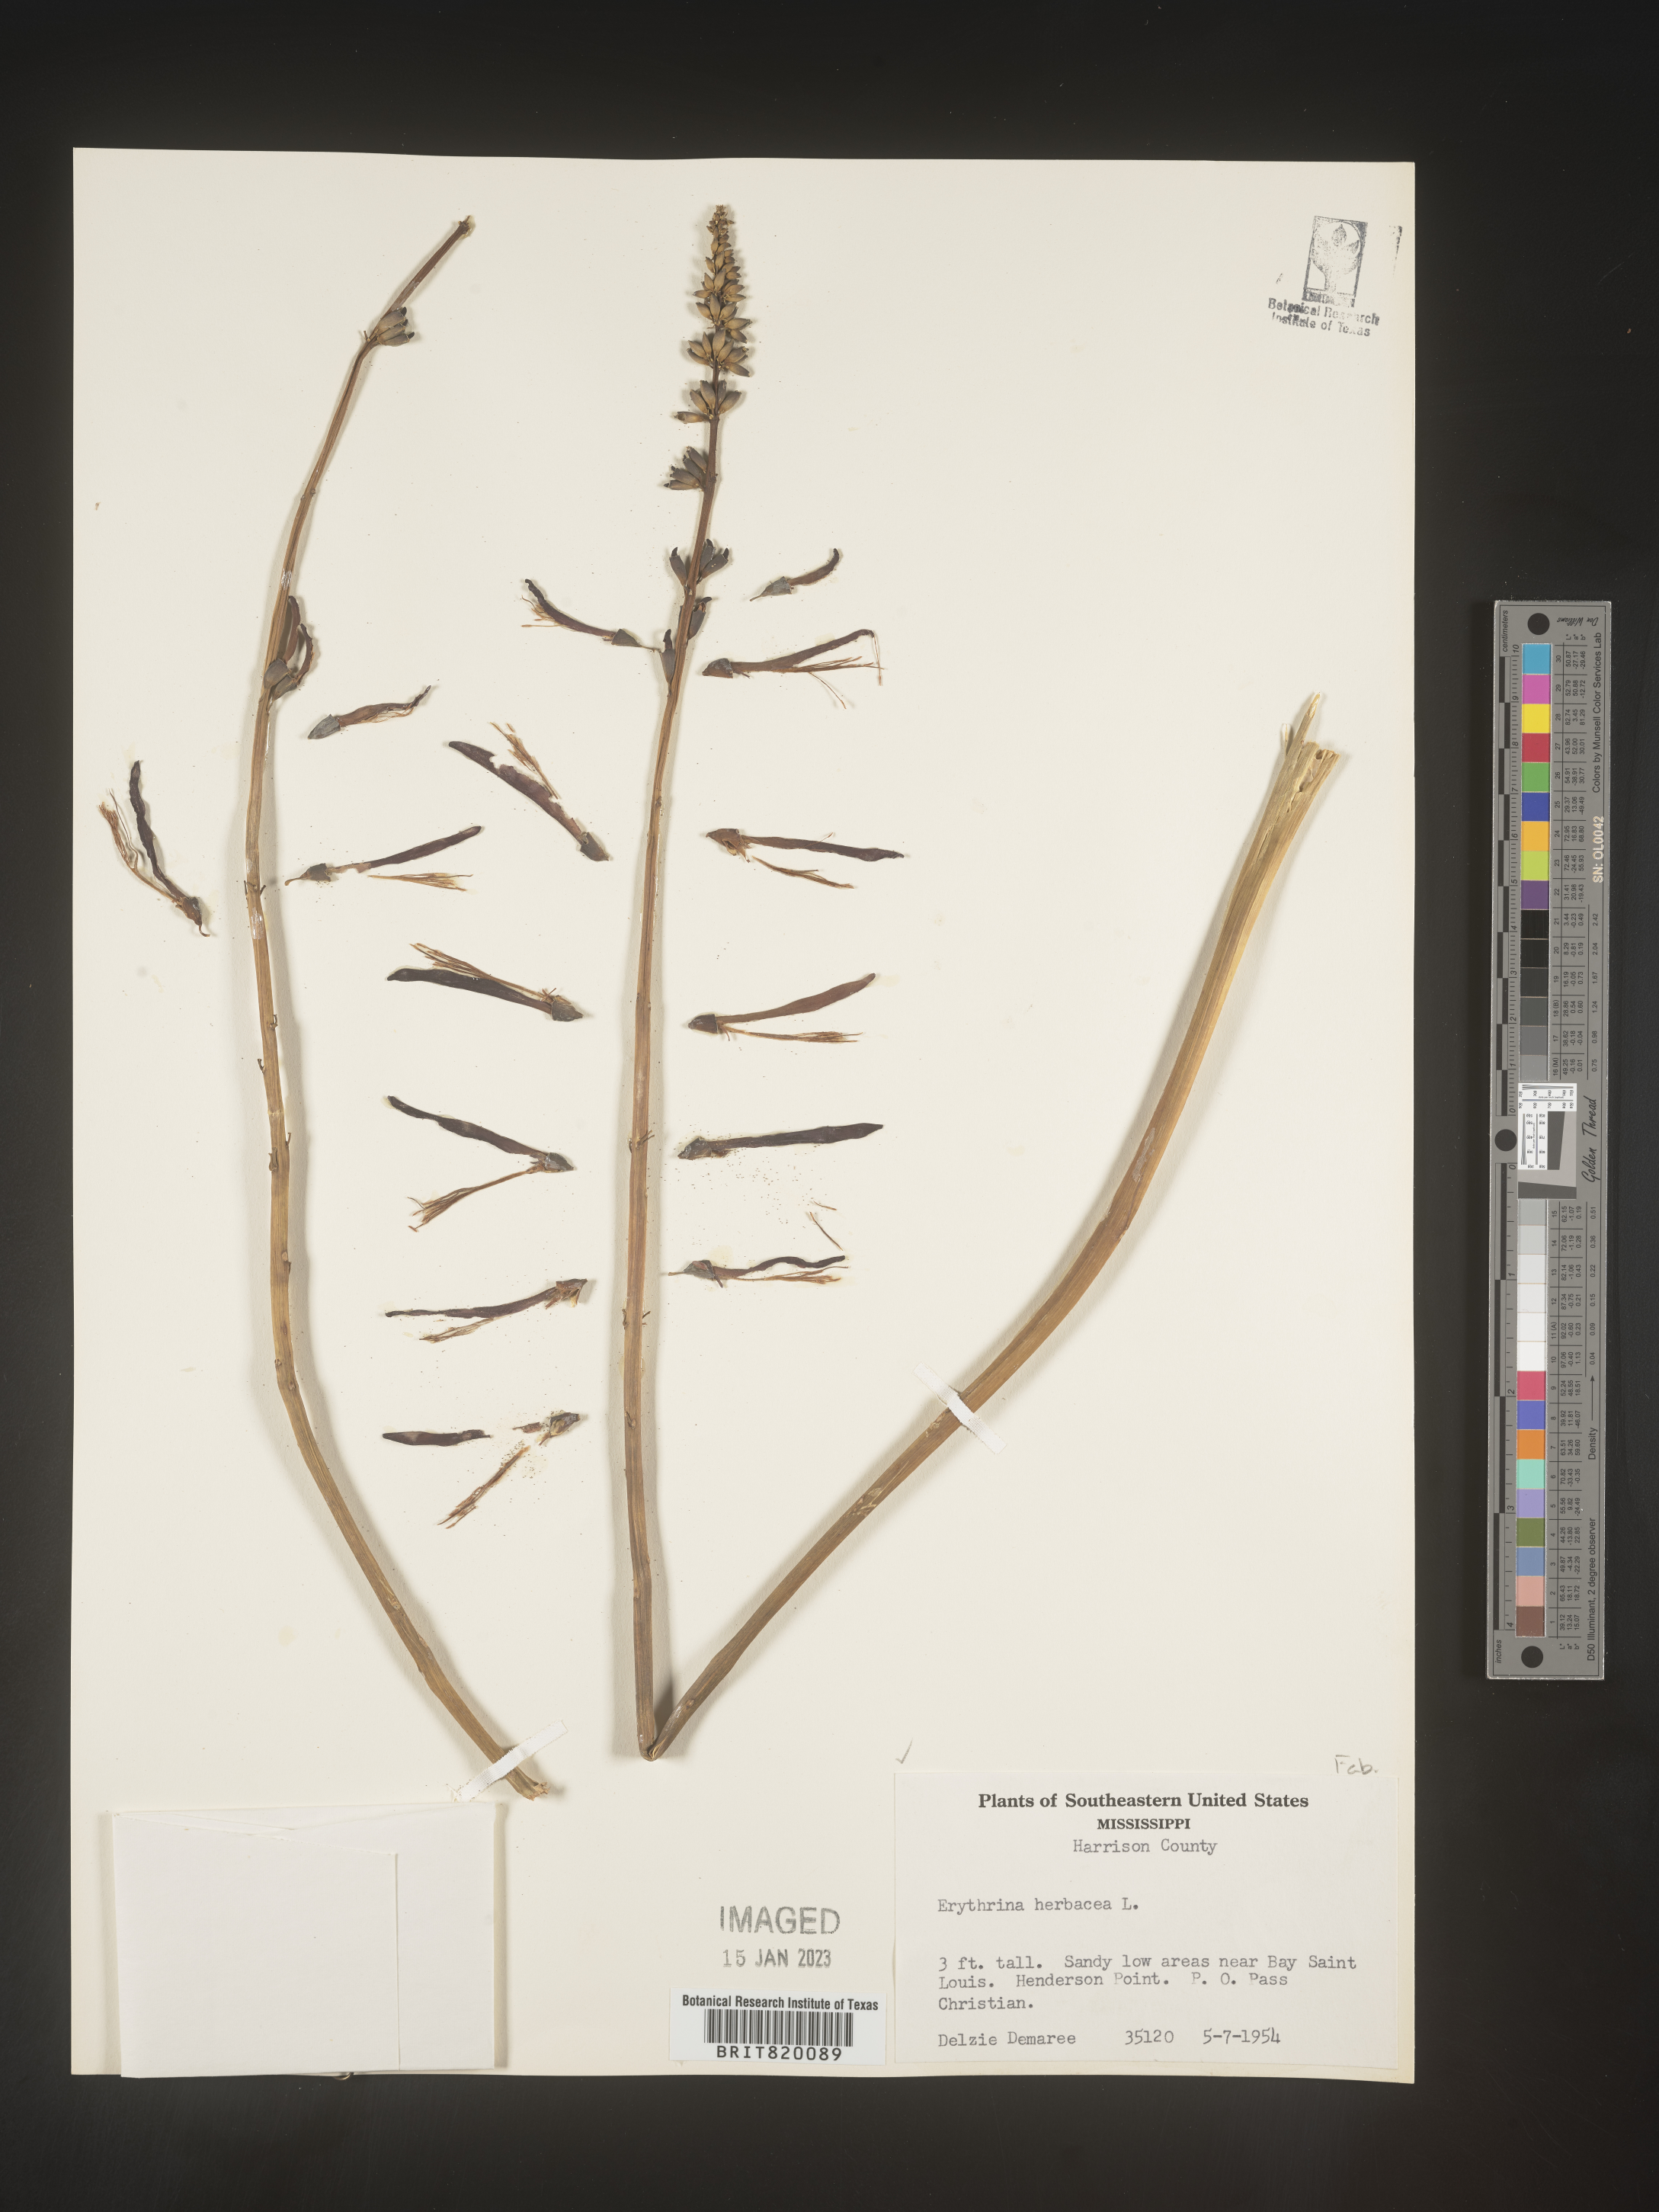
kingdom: Plantae
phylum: Tracheophyta
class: Magnoliopsida
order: Fabales
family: Fabaceae
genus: Erythrina
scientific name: Erythrina herbacea
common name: Coral-bean
